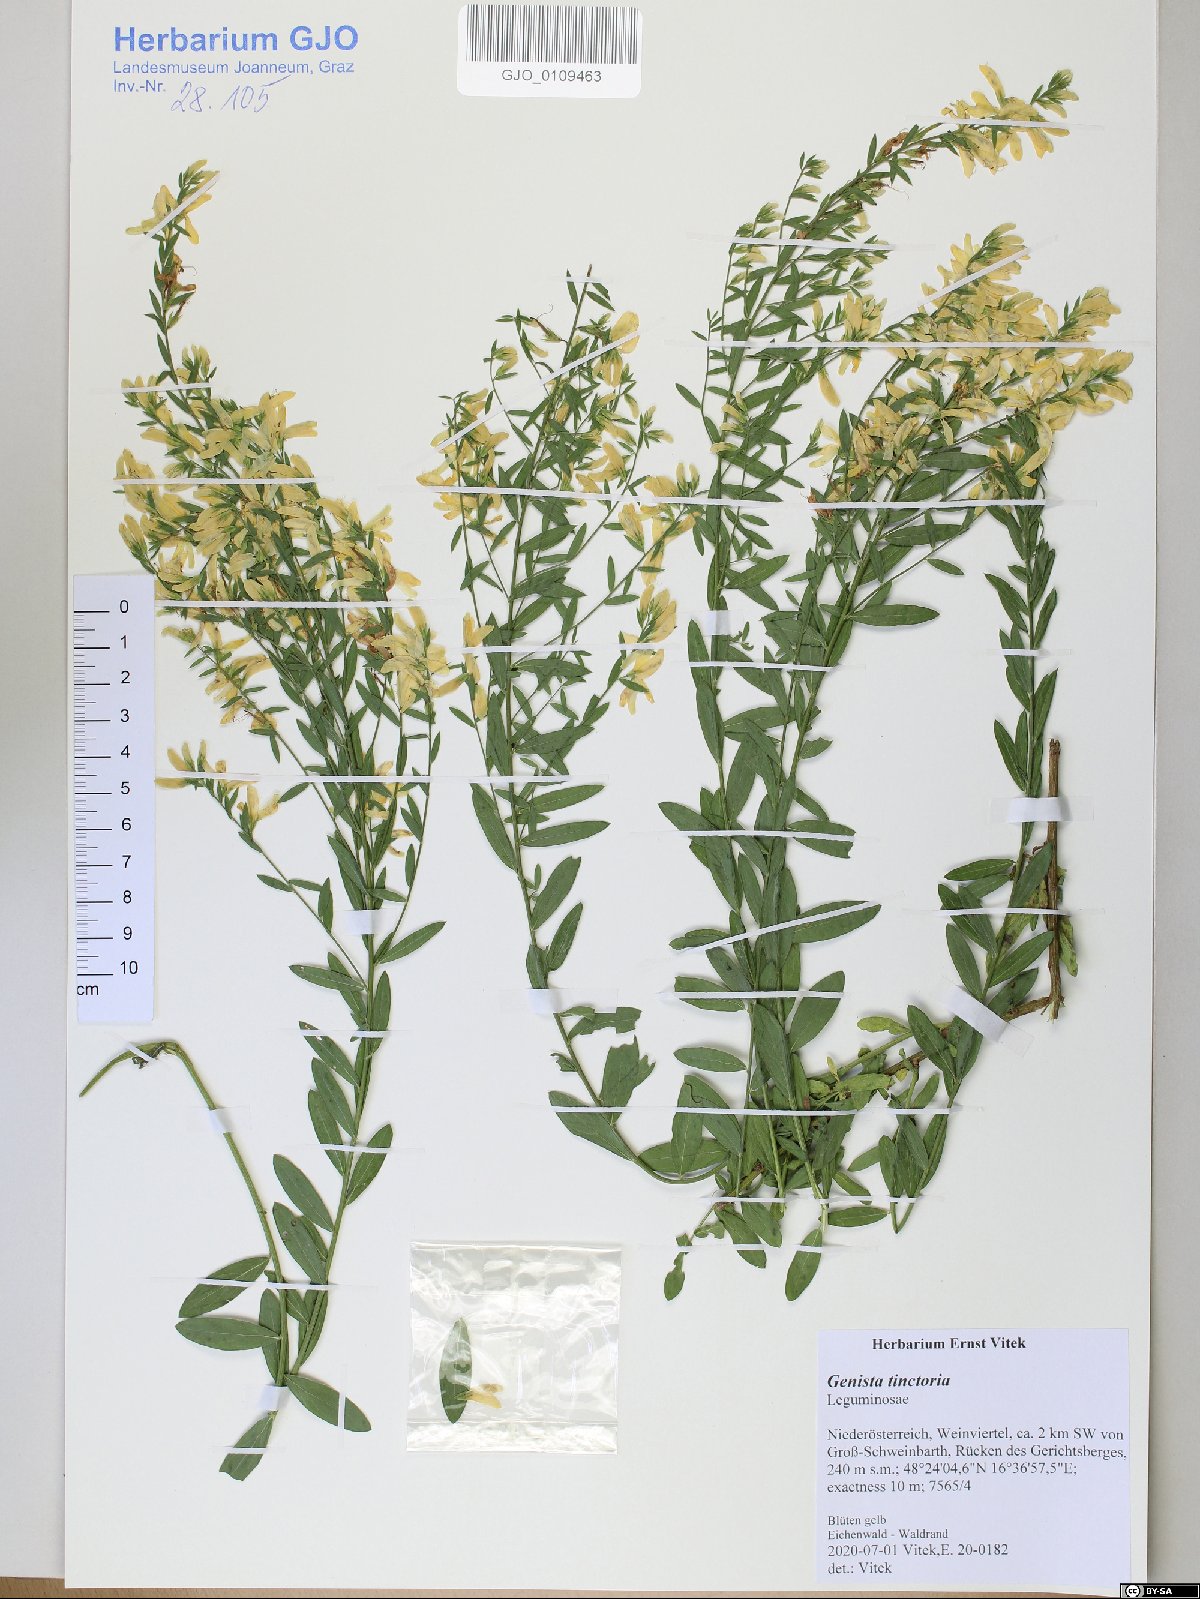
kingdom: Plantae
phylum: Tracheophyta
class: Magnoliopsida
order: Fabales
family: Fabaceae
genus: Genista
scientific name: Genista tinctoria
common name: Dyer's greenweed
